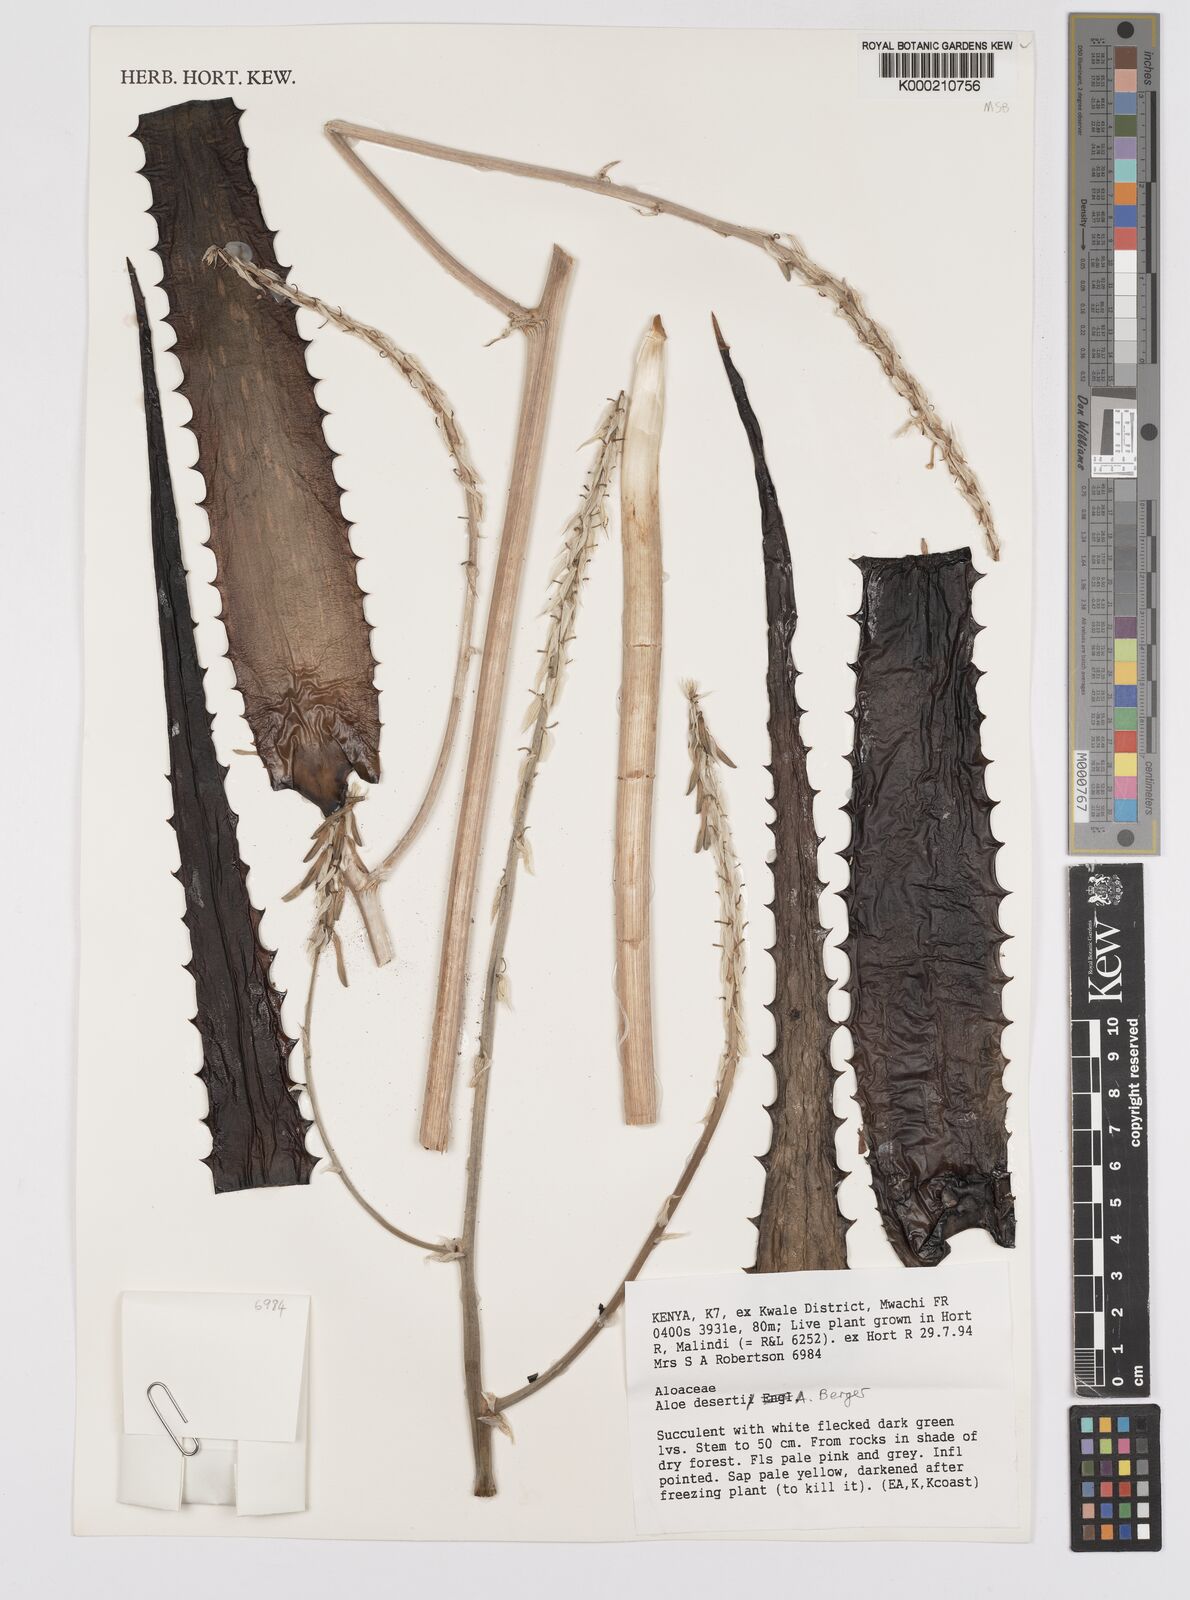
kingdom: Plantae
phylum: Tracheophyta
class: Liliopsida
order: Asparagales
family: Asphodelaceae
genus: Aloe
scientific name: Aloe deserti
